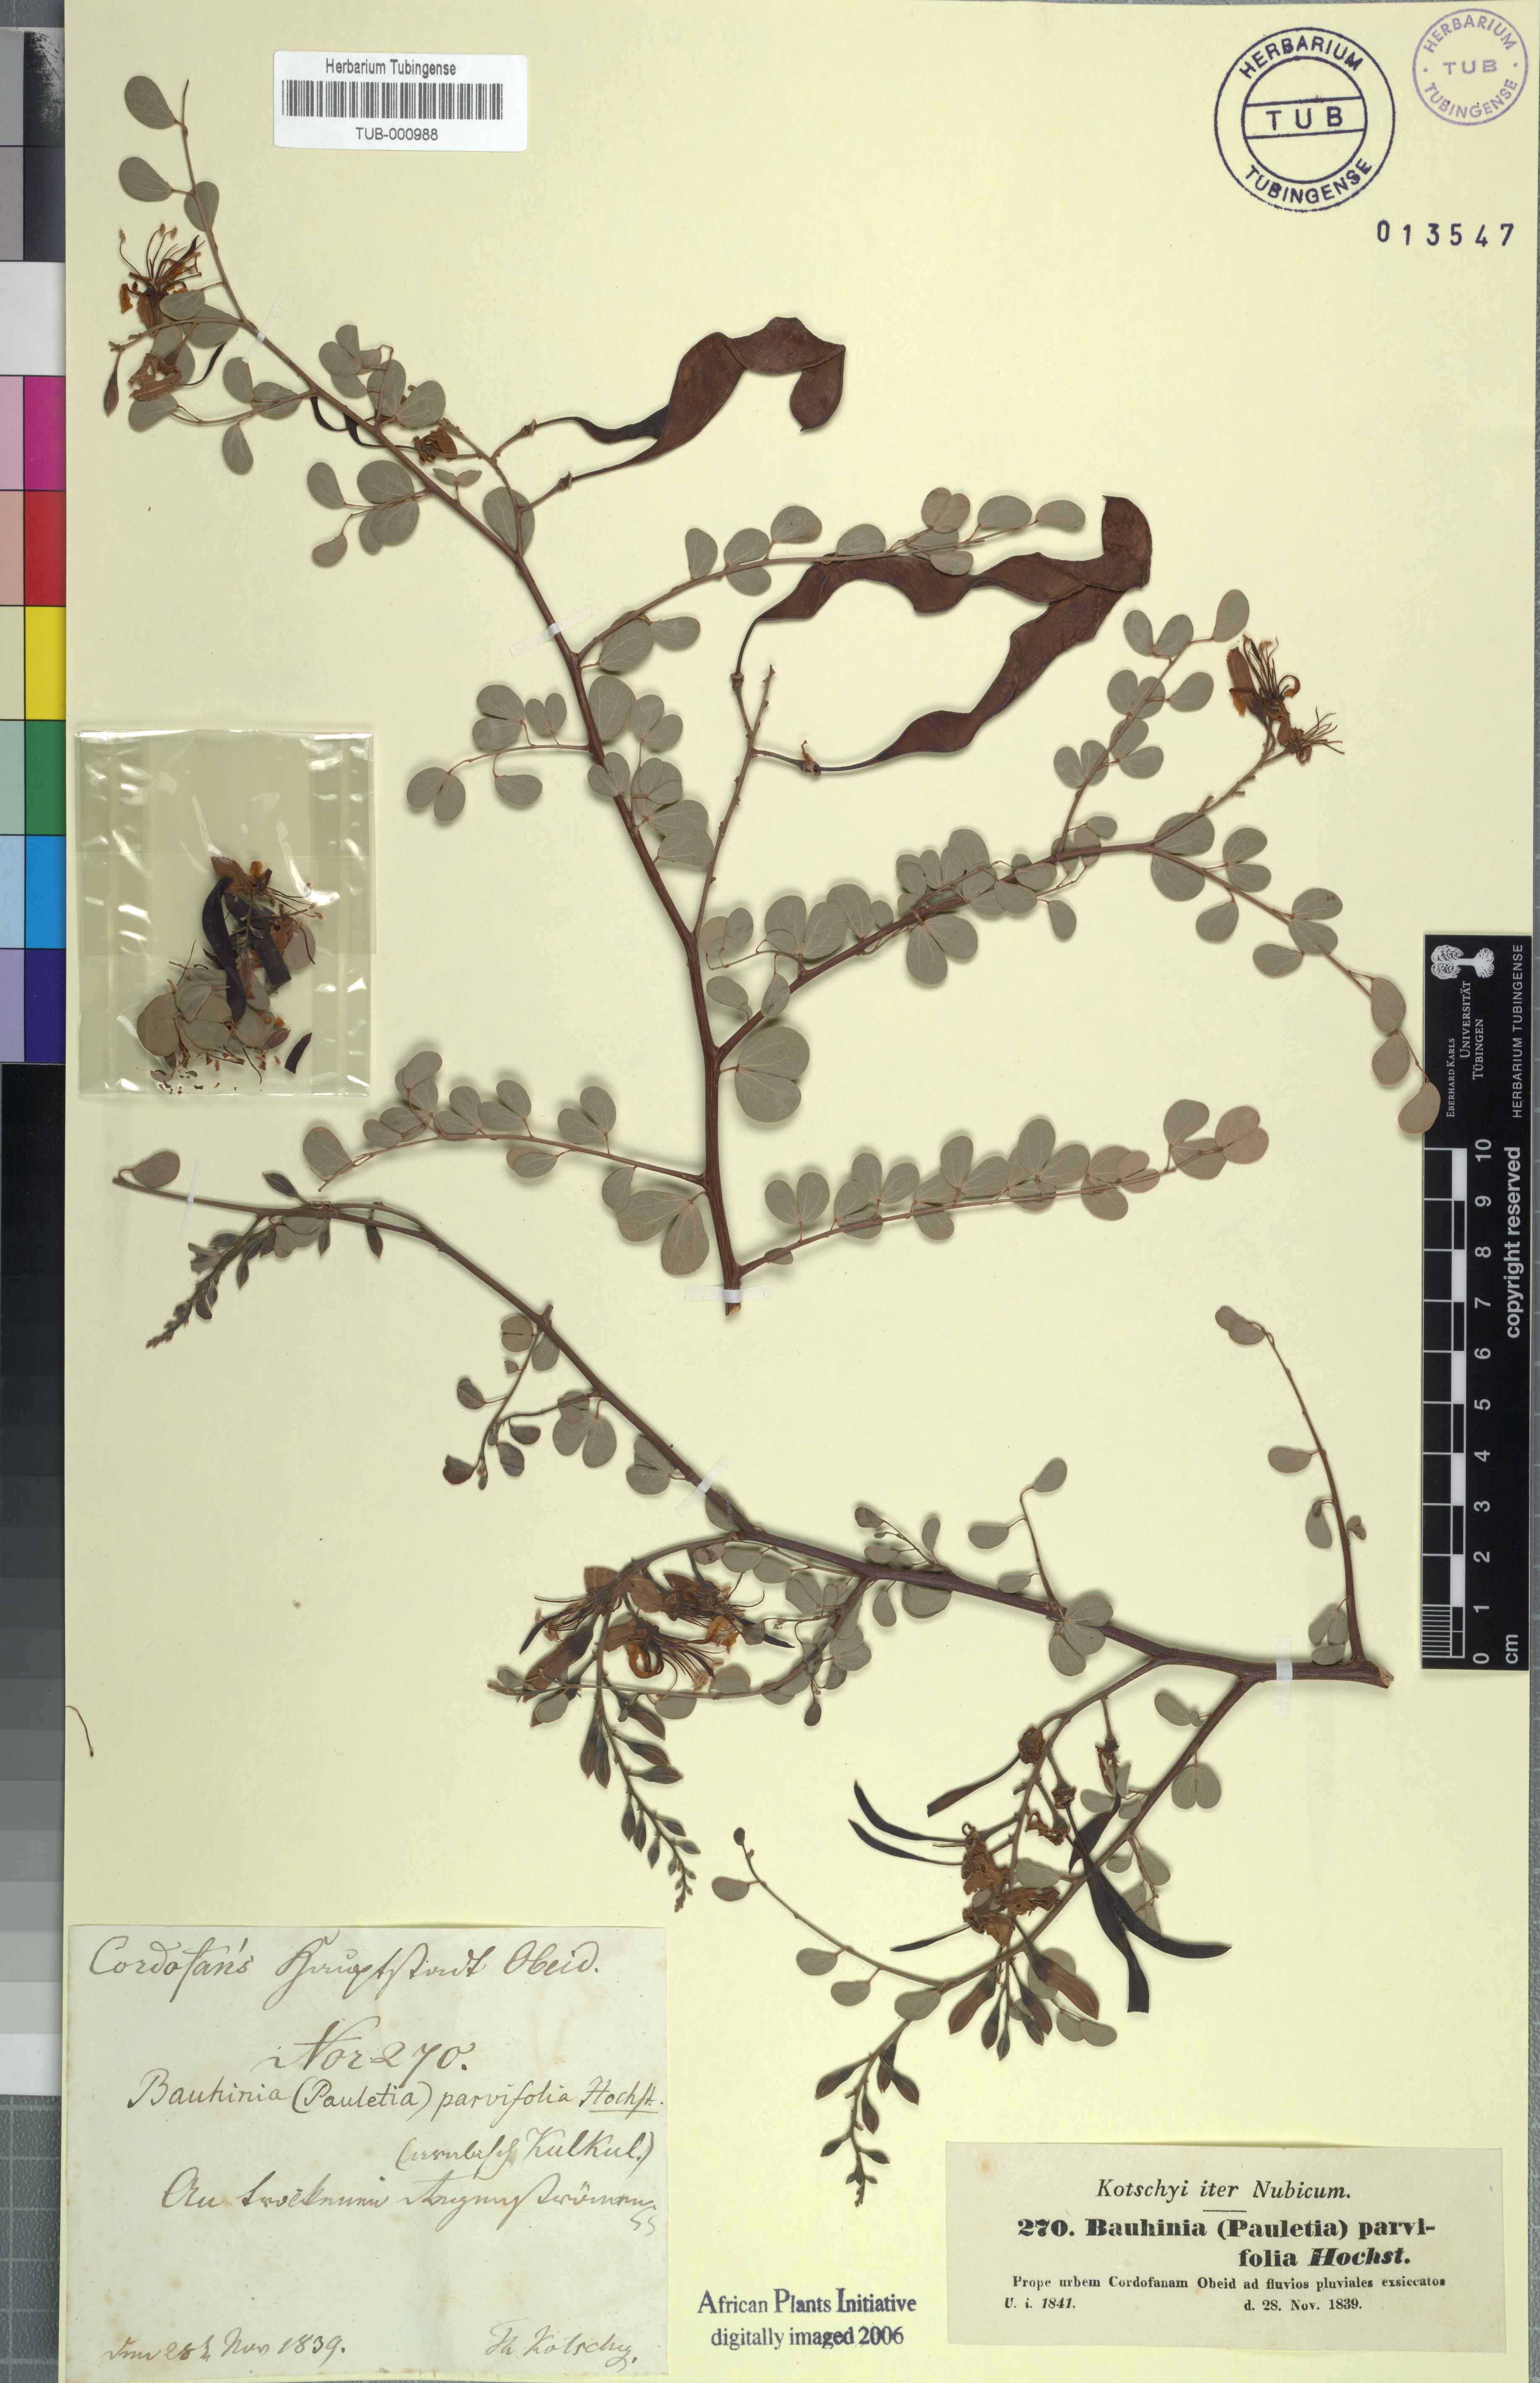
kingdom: Plantae
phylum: Tracheophyta
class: Magnoliopsida
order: Fabales
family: Fabaceae
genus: Bauhinia
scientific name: Bauhinia rufescens
